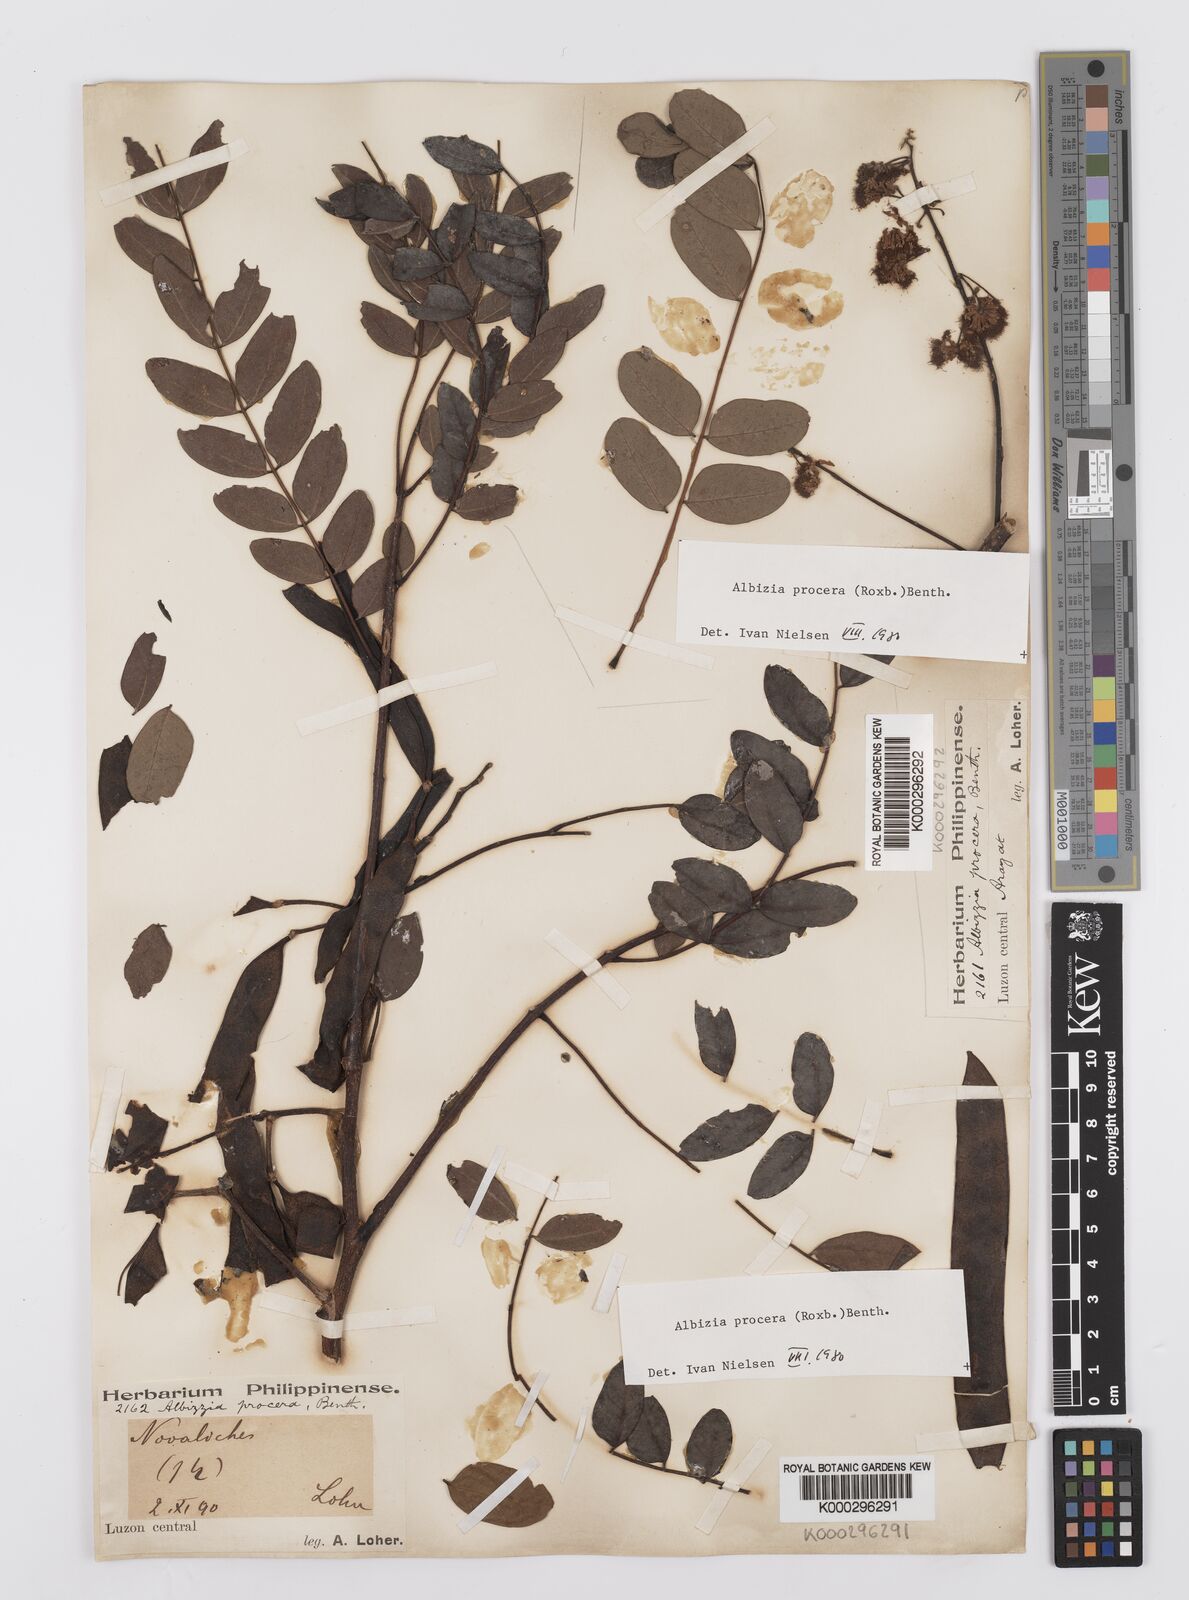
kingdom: Plantae
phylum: Tracheophyta
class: Magnoliopsida
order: Fabales
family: Fabaceae
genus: Albizia
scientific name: Albizia procera
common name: Tall albizia
